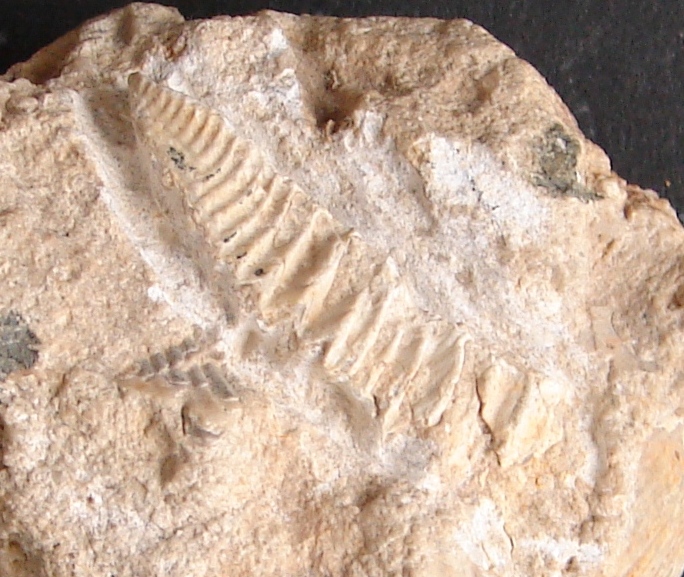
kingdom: Animalia
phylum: Mollusca
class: Bivalvia
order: Ostreida
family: Arctostreidae
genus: Rastellum
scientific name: Rastellum
